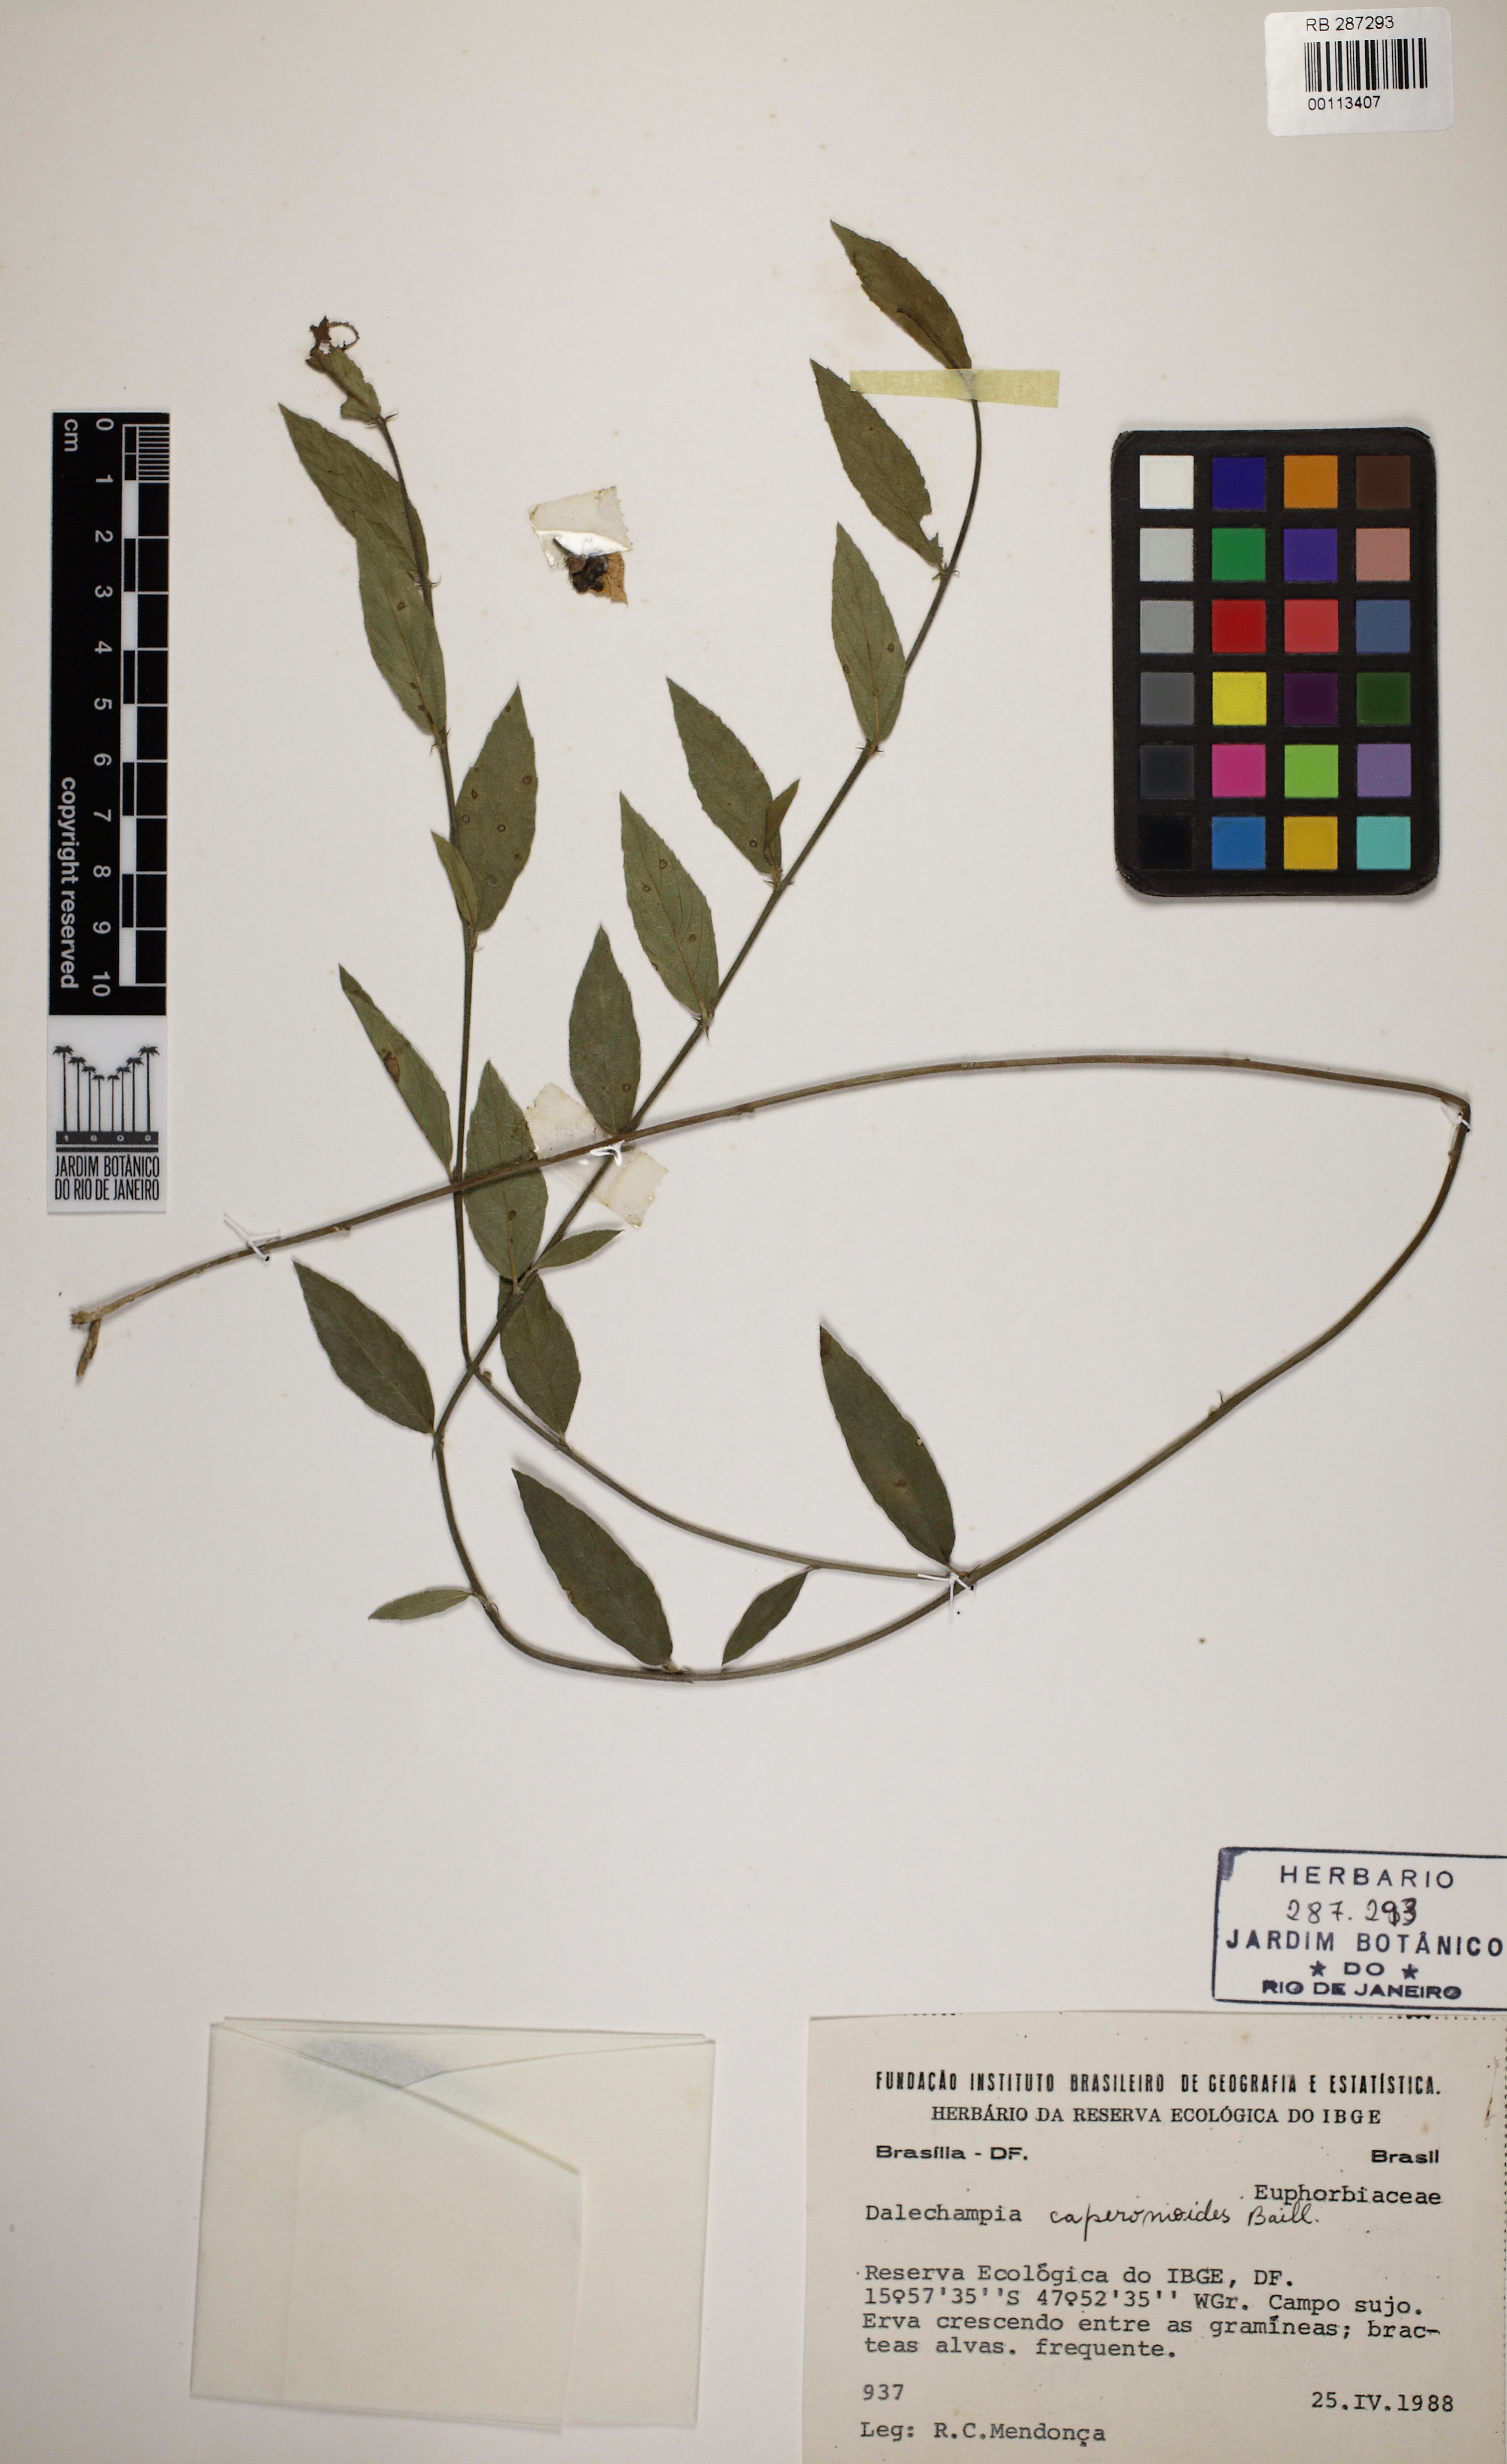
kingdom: Plantae
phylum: Tracheophyta
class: Magnoliopsida
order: Malpighiales
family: Euphorbiaceae
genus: Dalechampia
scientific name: Dalechampia caperonioides
